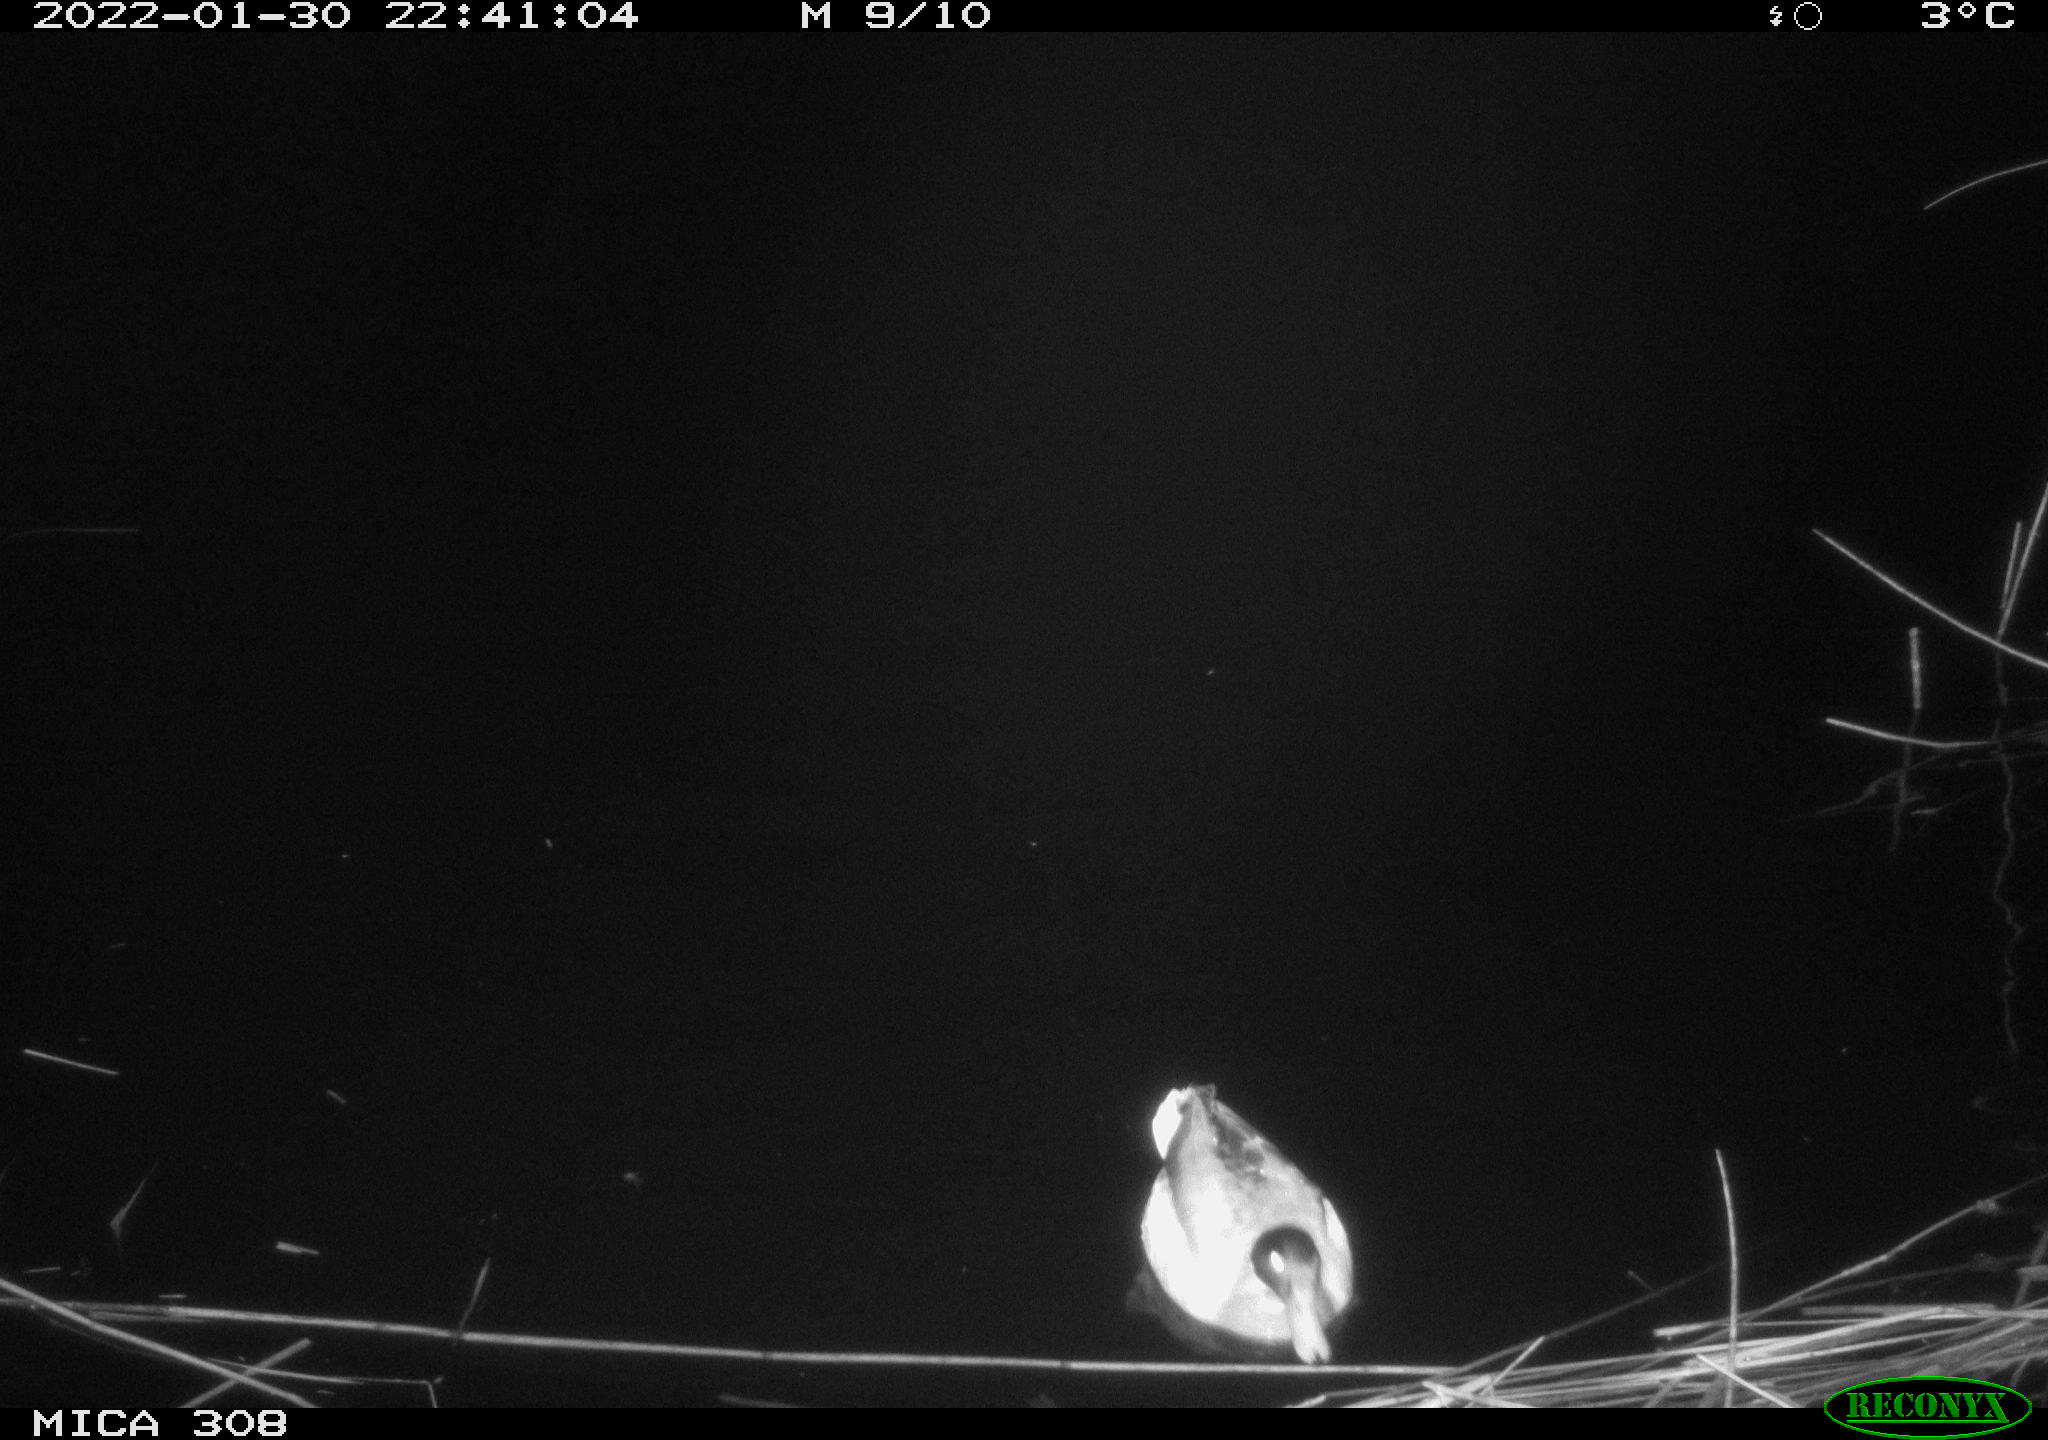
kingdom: Animalia
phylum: Chordata
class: Aves
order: Anseriformes
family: Anatidae
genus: Anas
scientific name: Anas
